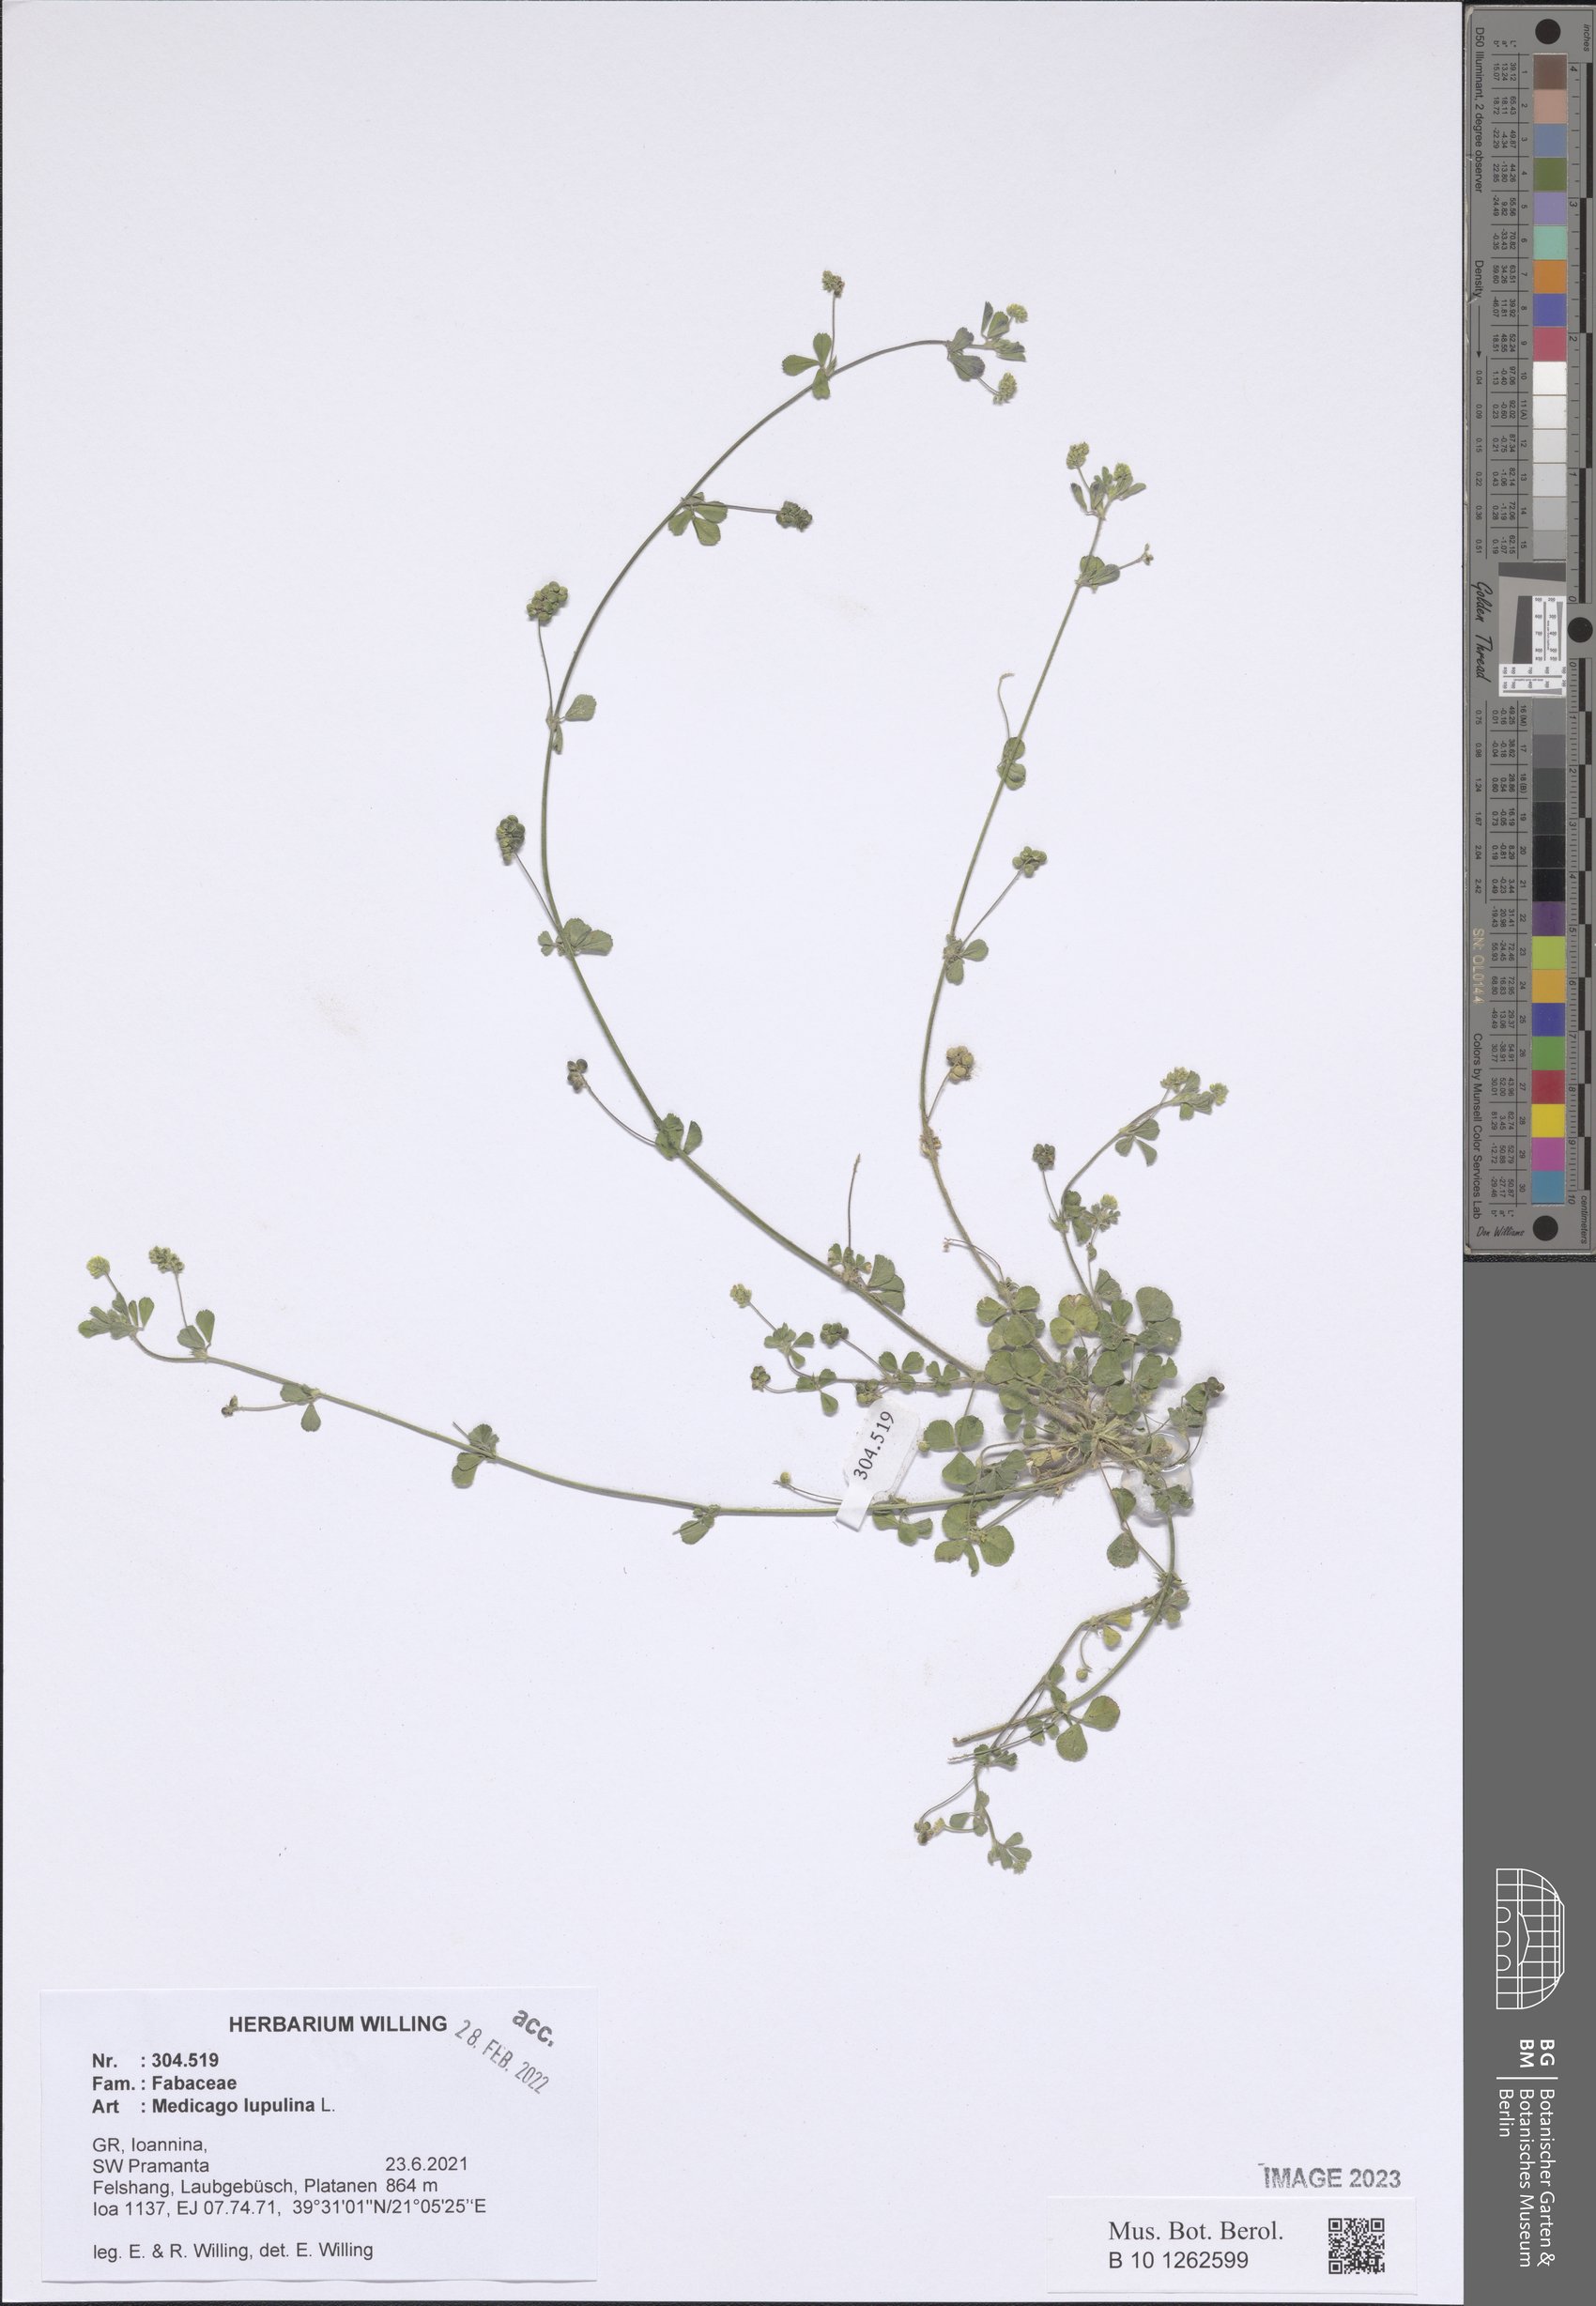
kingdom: Plantae
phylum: Tracheophyta
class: Magnoliopsida
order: Fabales
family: Fabaceae
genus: Medicago
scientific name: Medicago lupulina
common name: Black medick
